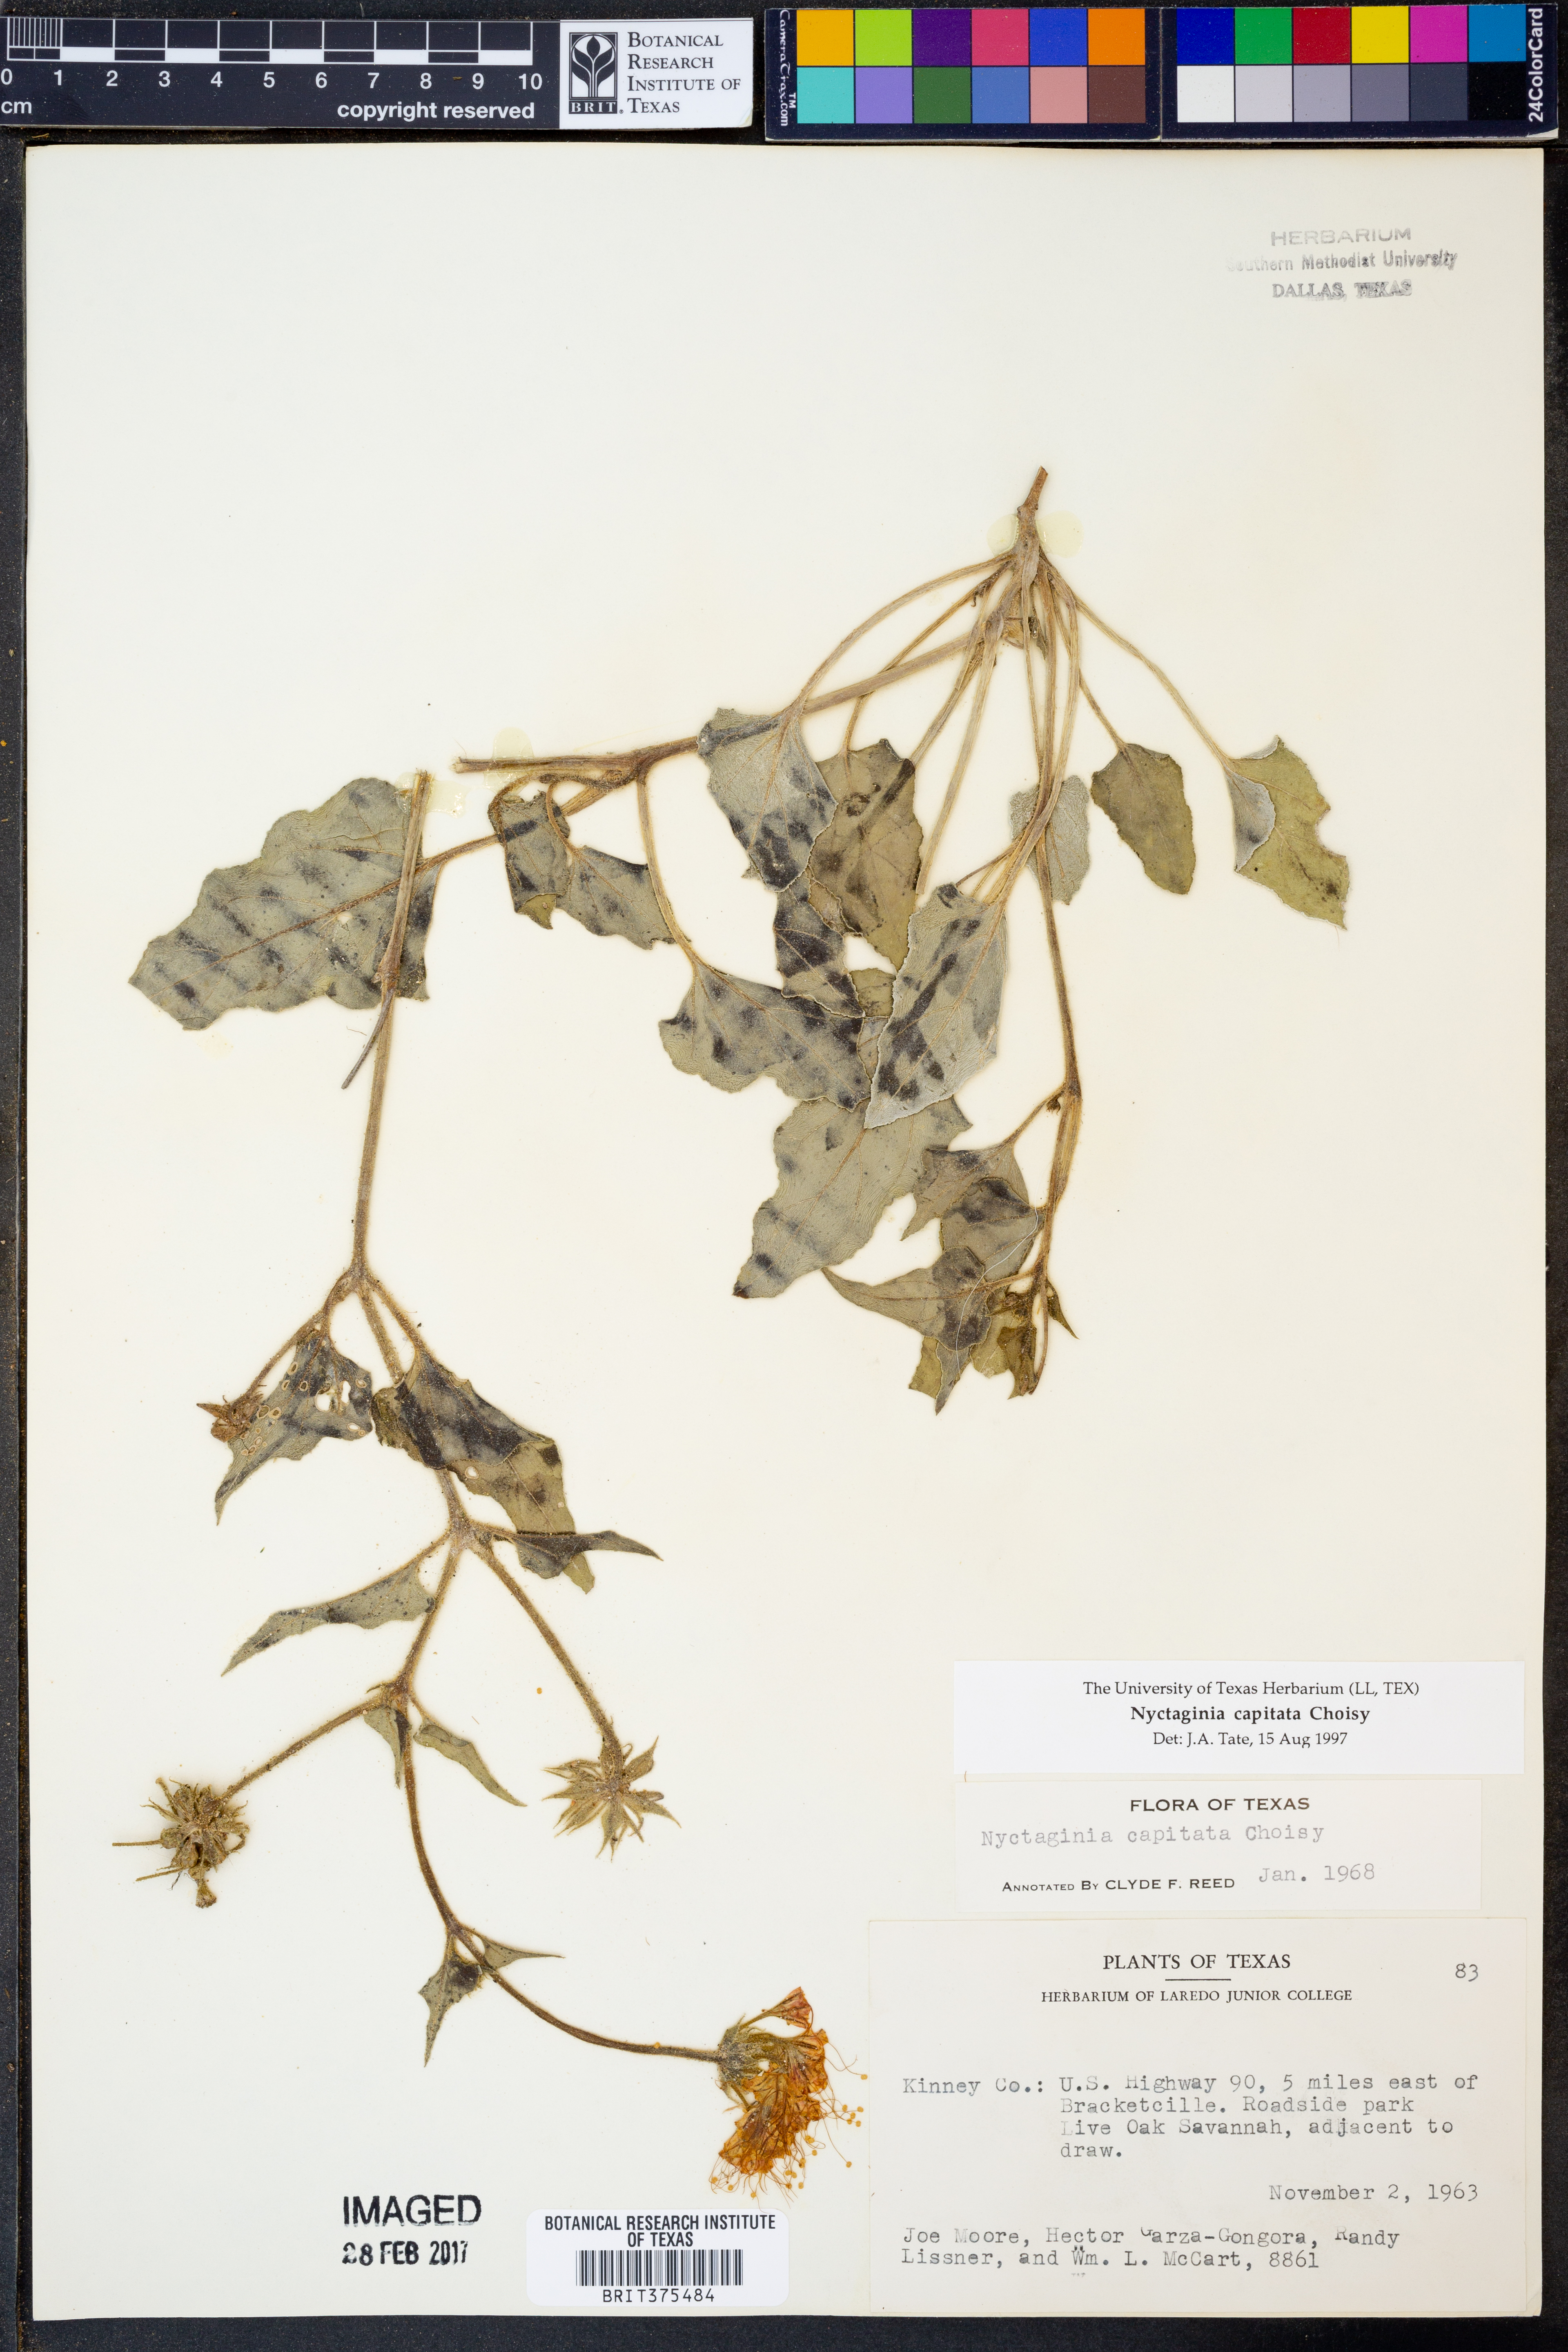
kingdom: Plantae
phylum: Tracheophyta
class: Magnoliopsida
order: Caryophyllales
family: Nyctaginaceae
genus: Nyctaginia
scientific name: Nyctaginia capitata
